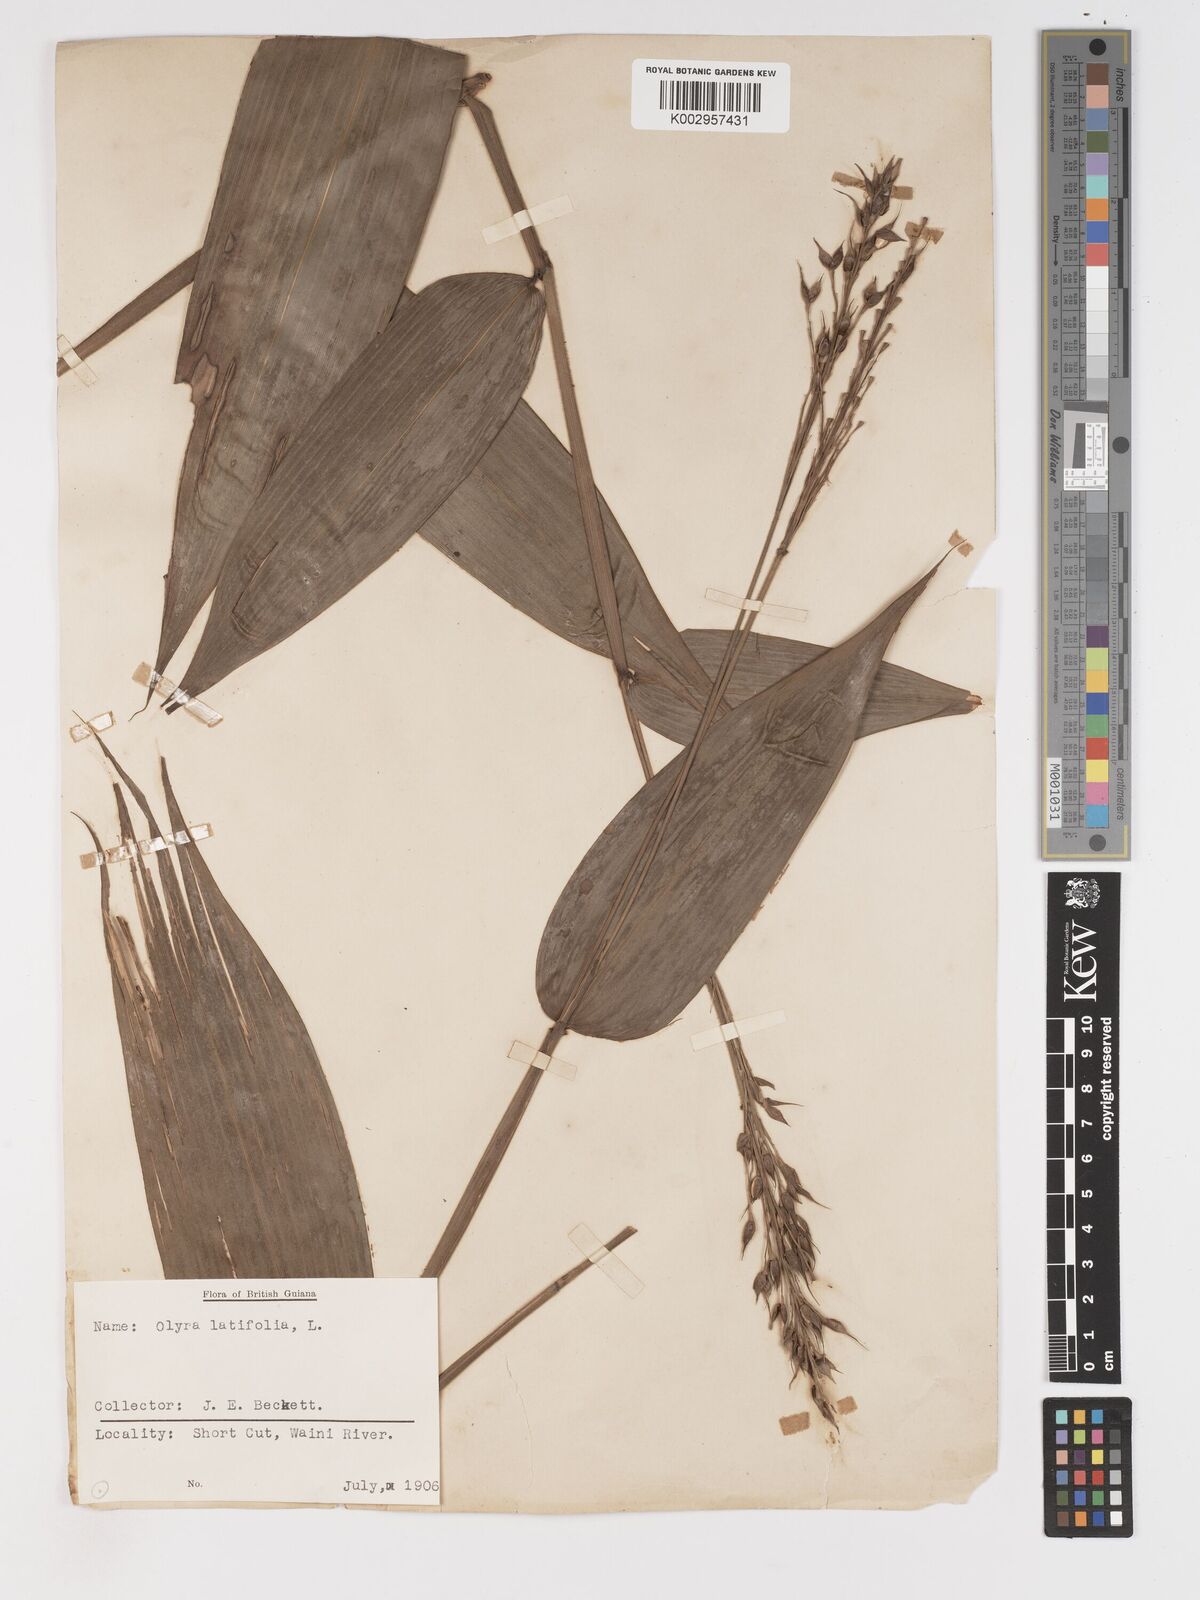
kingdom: Plantae
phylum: Tracheophyta
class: Liliopsida
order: Poales
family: Poaceae
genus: Olyra
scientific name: Olyra latifolia
